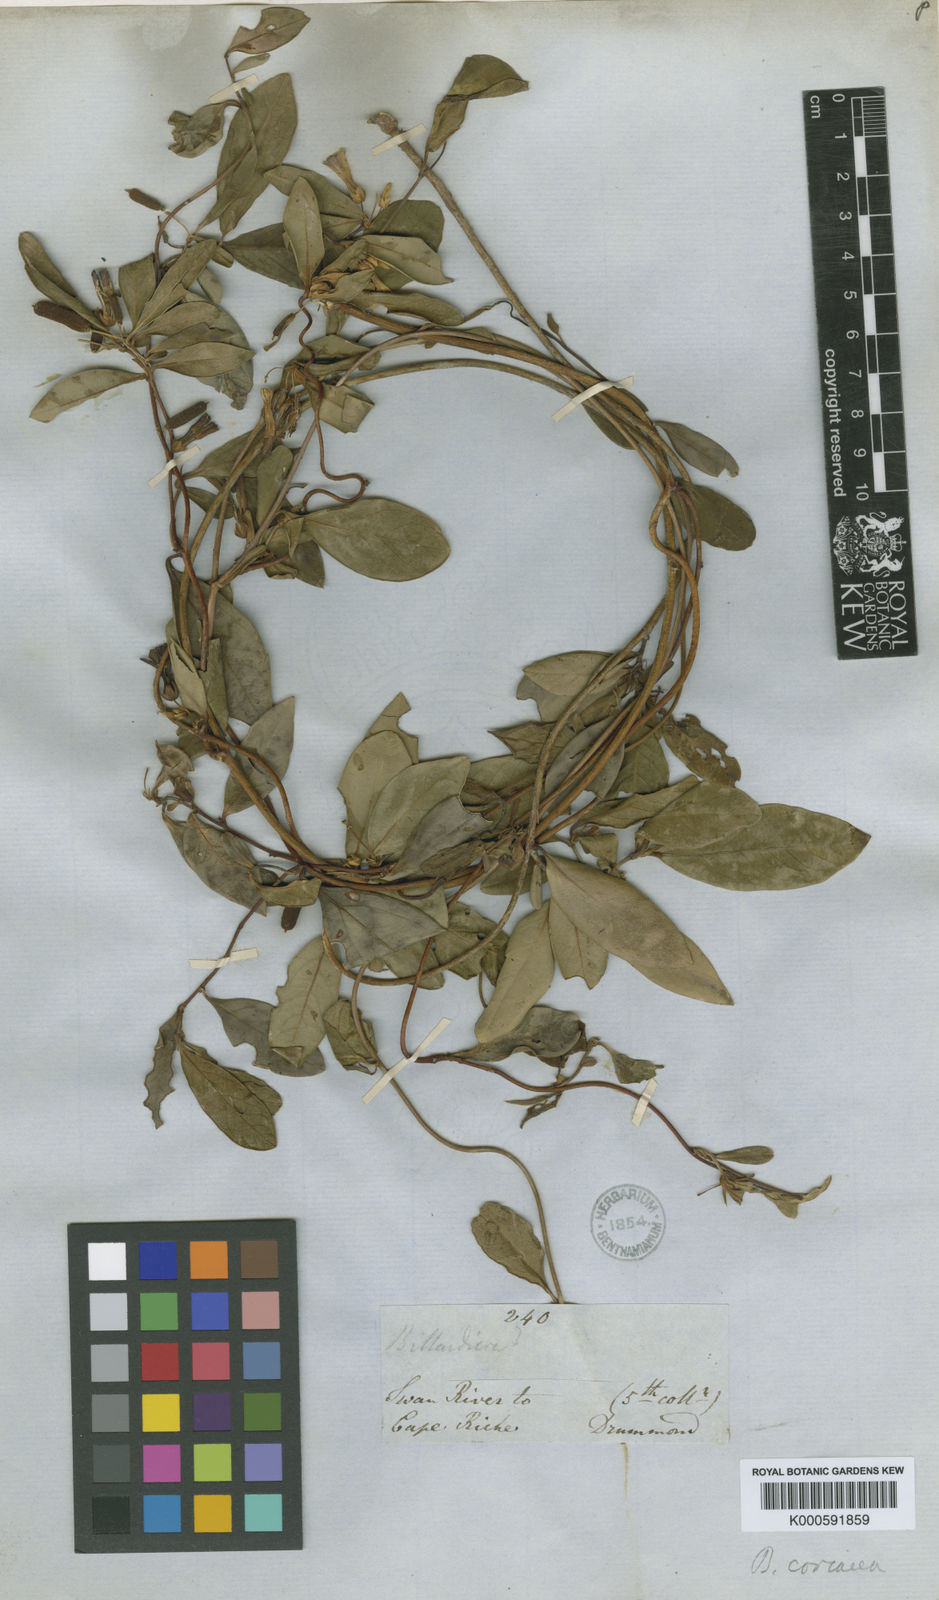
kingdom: Plantae
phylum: Tracheophyta
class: Magnoliopsida
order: Apiales
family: Pittosporaceae
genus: Billardiera
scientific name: Billardiera coriacea
